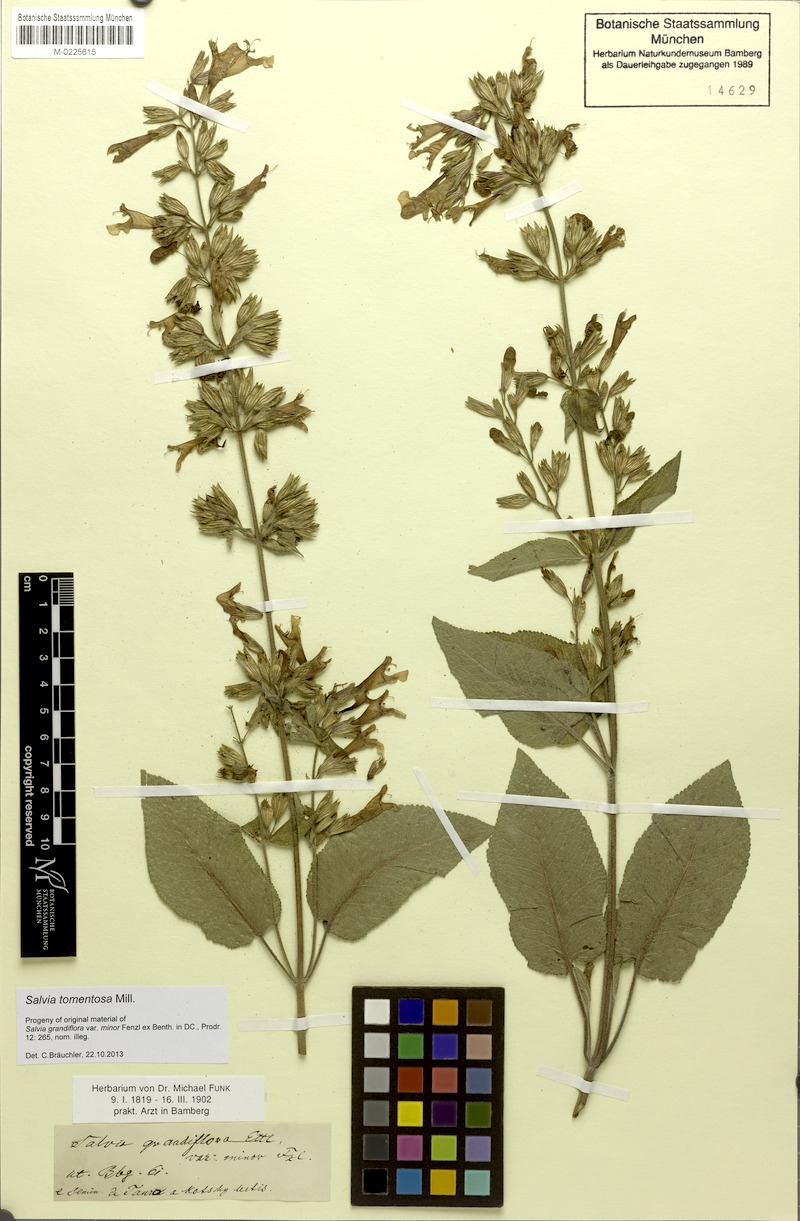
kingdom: Plantae
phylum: Tracheophyta
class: Magnoliopsida
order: Lamiales
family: Lamiaceae
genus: Salvia
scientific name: Salvia tomentosa
